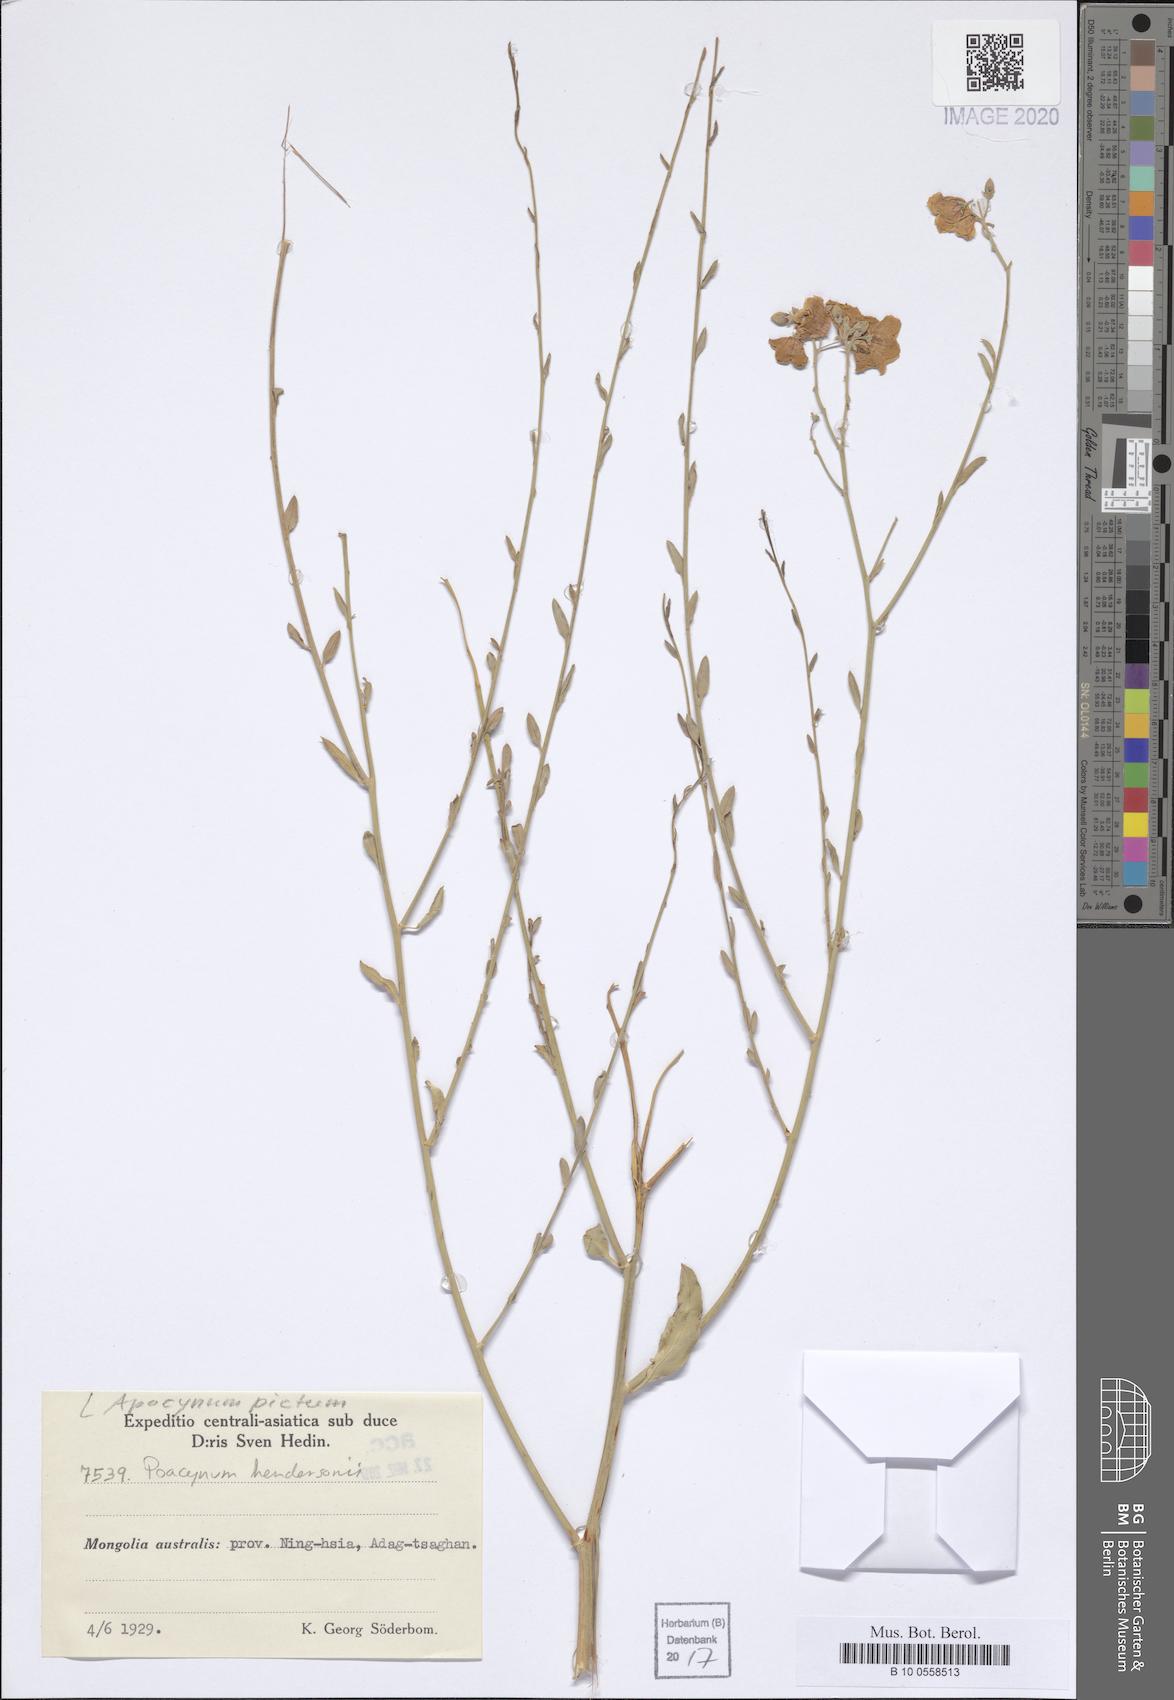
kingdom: Plantae
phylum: Tracheophyta
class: Magnoliopsida
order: Gentianales
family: Apocynaceae
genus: Poacynum
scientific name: Poacynum pictum
